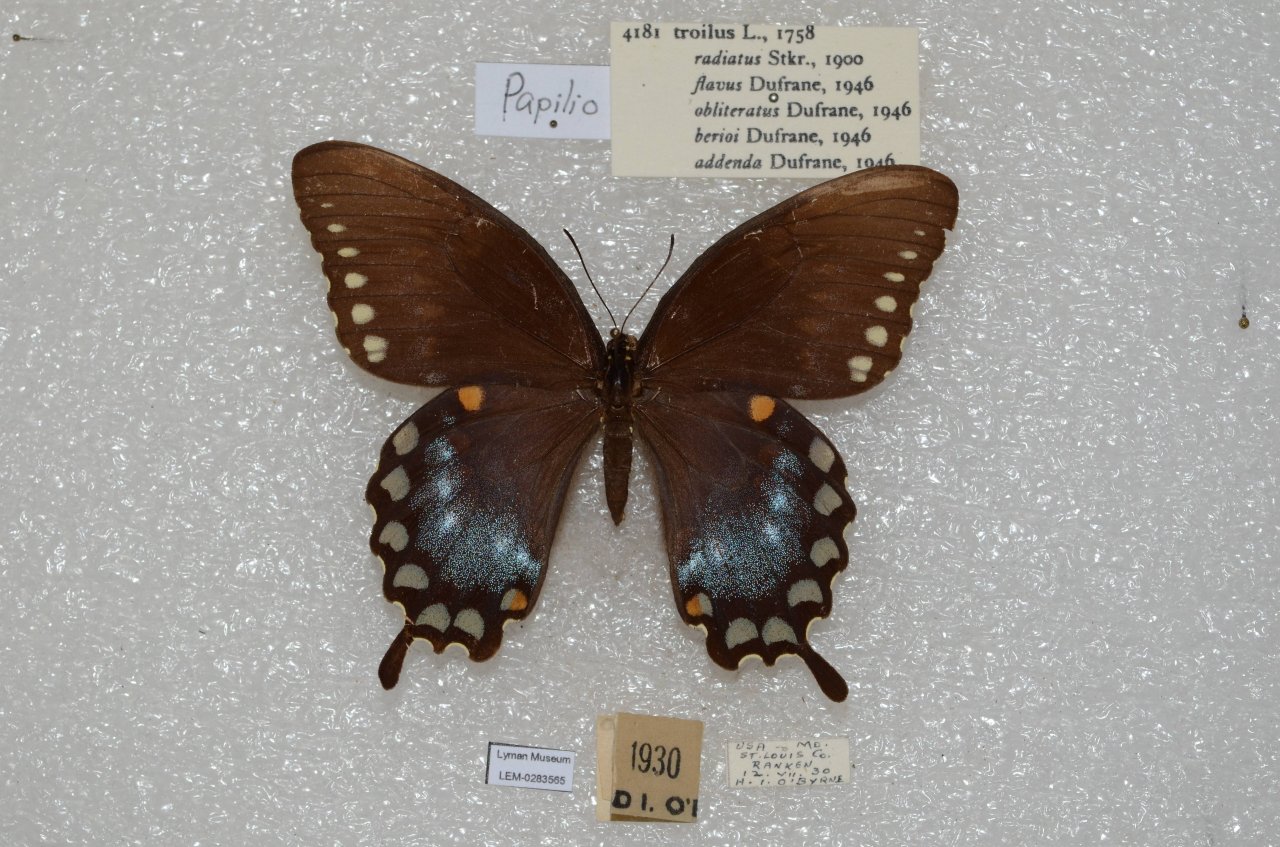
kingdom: Animalia
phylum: Arthropoda
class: Insecta
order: Lepidoptera
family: Papilionidae
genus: Pterourus
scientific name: Pterourus troilus
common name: Spicebush Swallowtail
